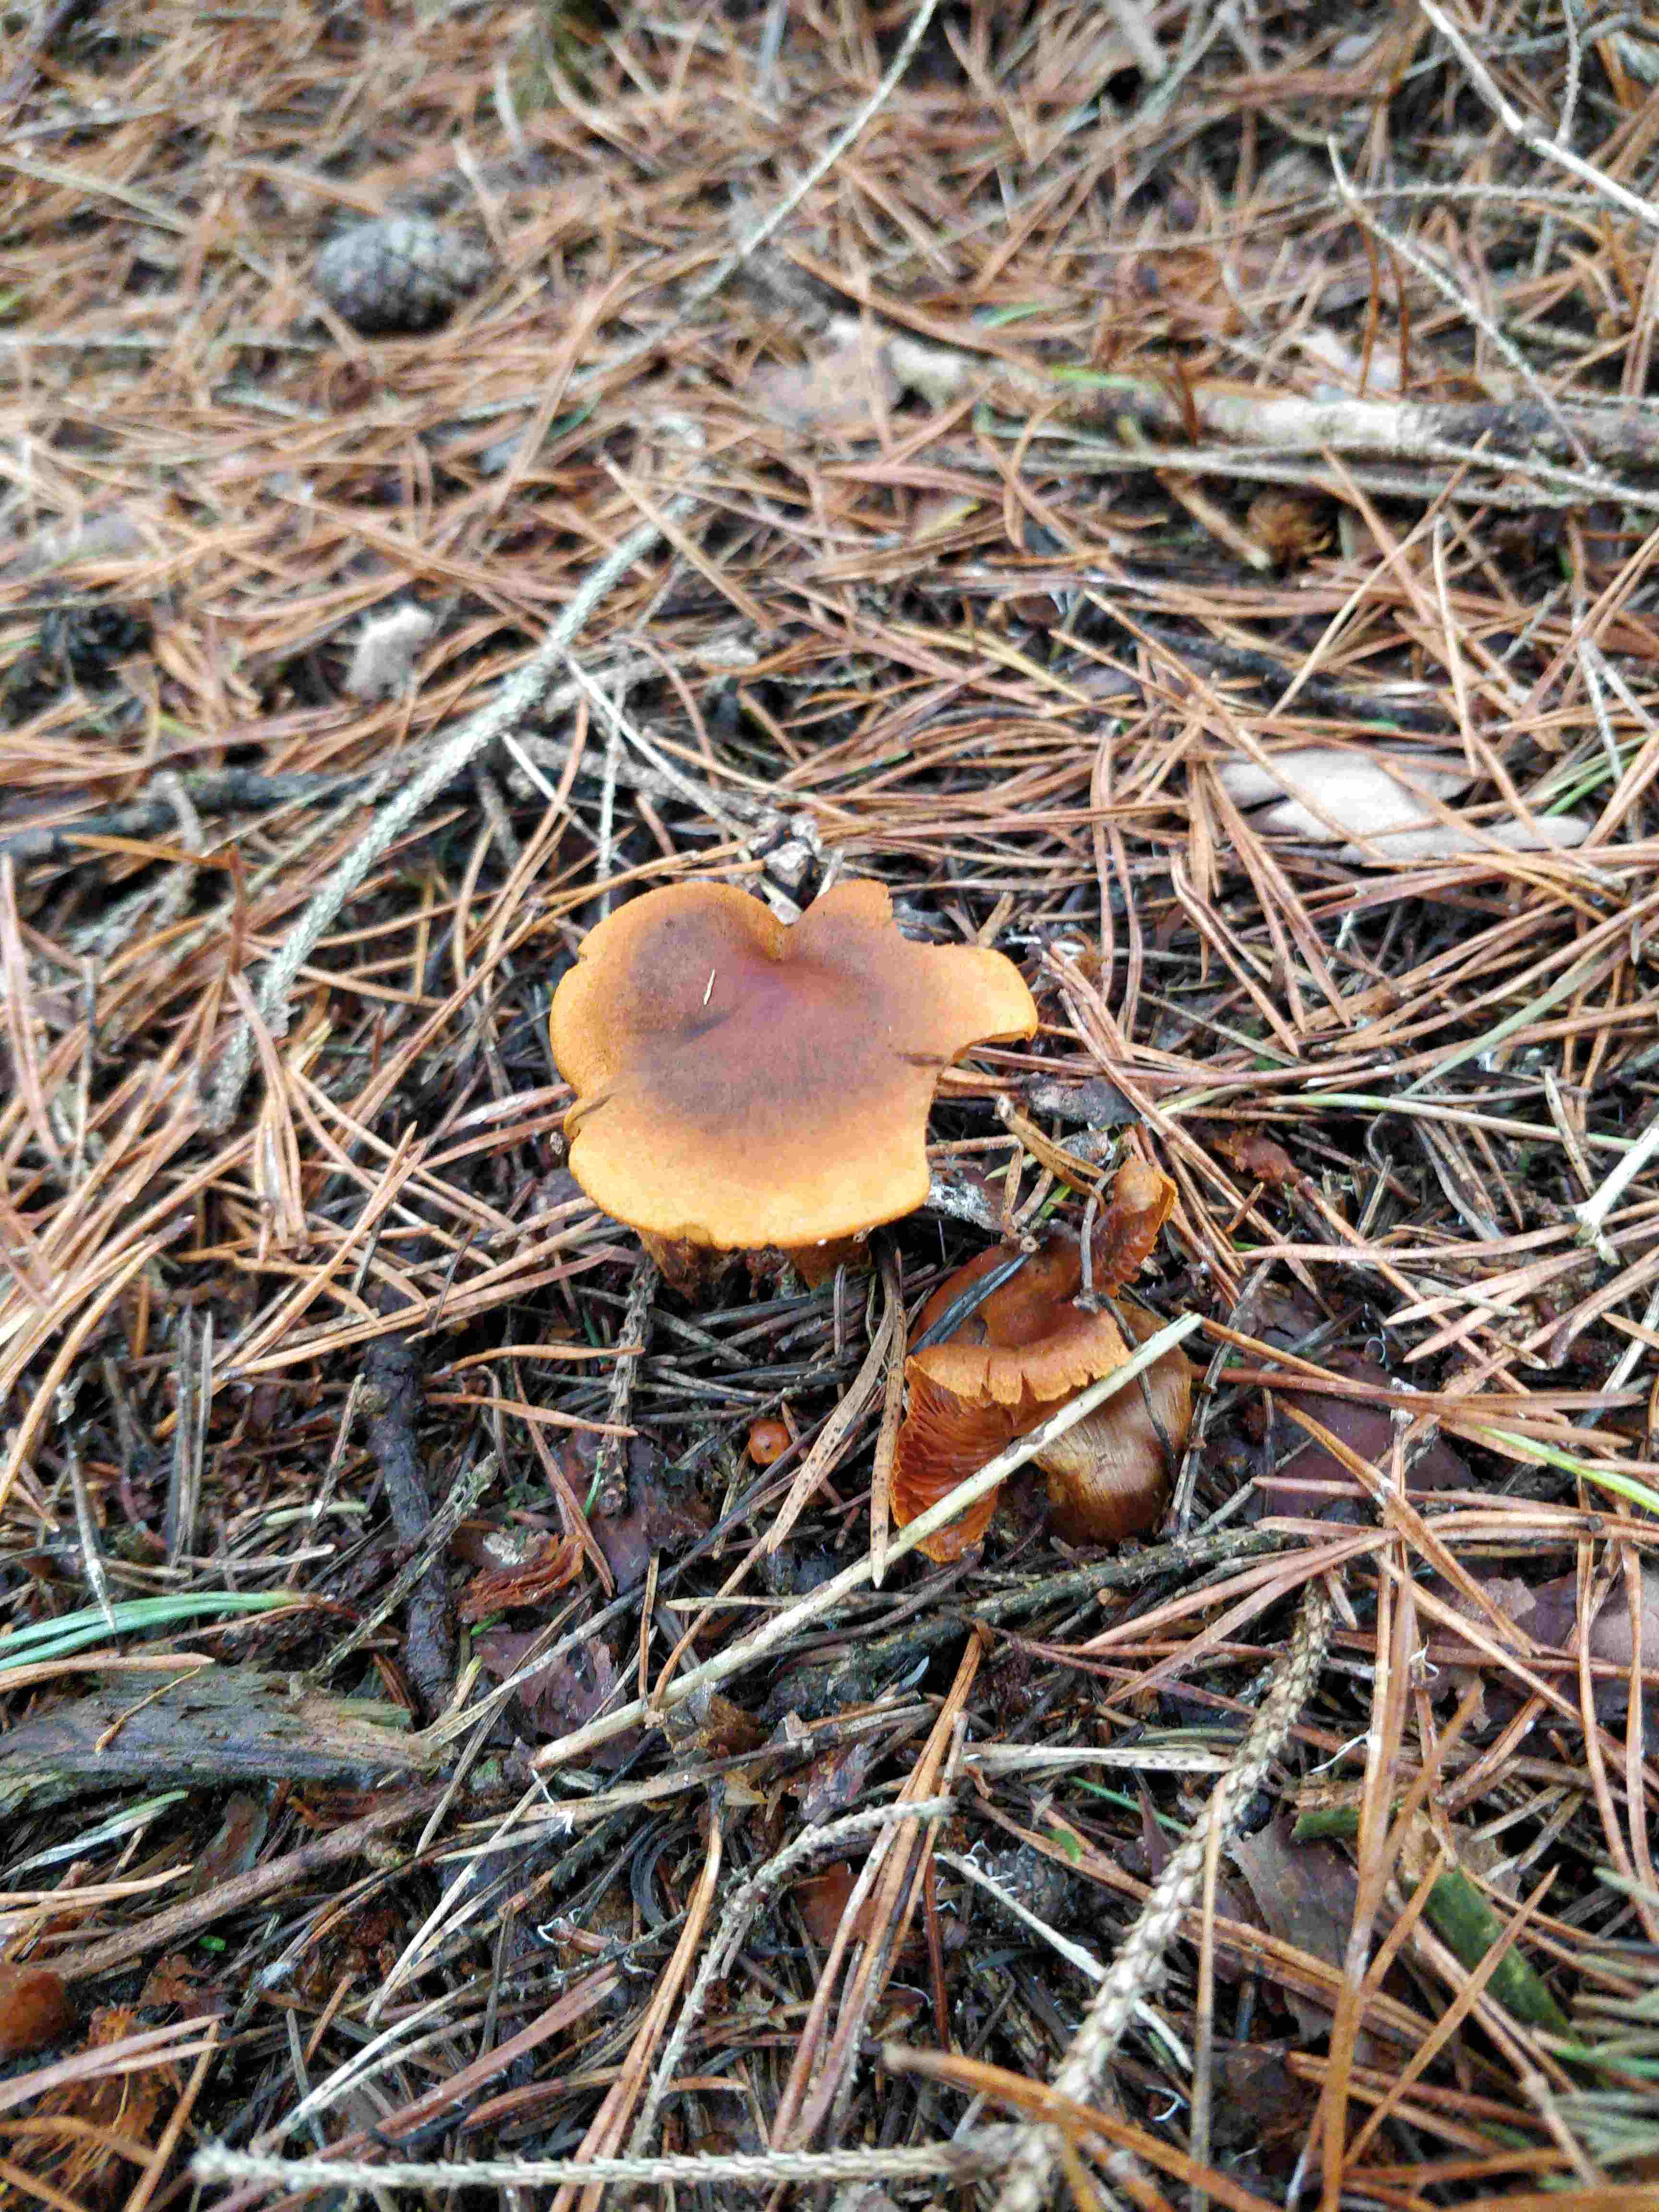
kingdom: Fungi
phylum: Basidiomycota
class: Agaricomycetes
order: Agaricales
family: Cortinariaceae
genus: Cortinarius
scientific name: Cortinarius malicorius
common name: grønkødet slørhat
